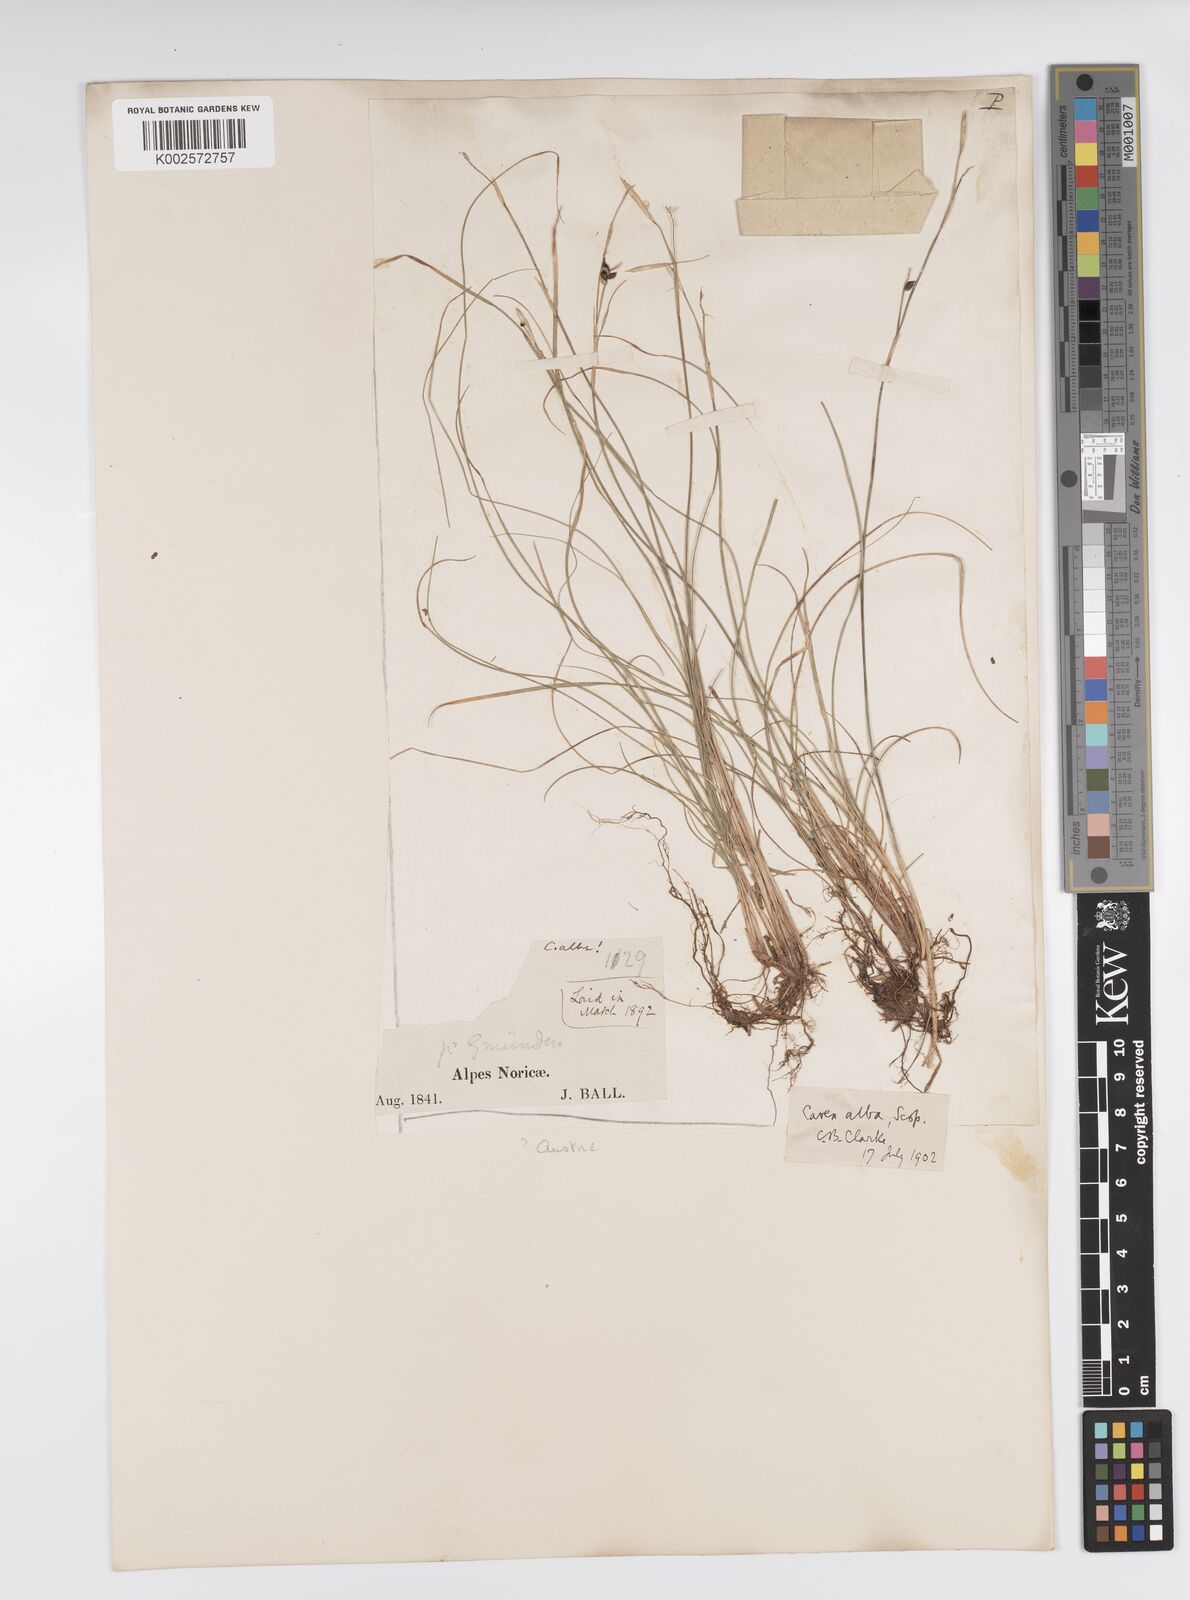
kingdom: Plantae
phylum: Tracheophyta
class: Liliopsida
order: Poales
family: Cyperaceae
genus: Carex
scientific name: Carex alba
